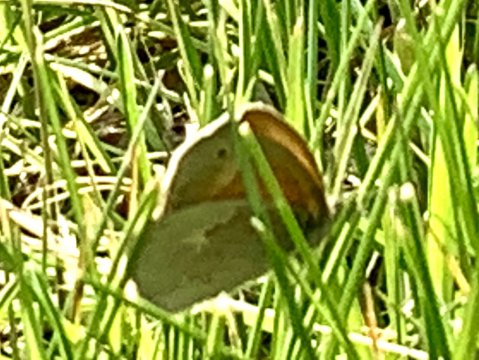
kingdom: Animalia
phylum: Arthropoda
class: Insecta
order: Lepidoptera
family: Nymphalidae
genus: Coenonympha
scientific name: Coenonympha california
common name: California Ringlet
